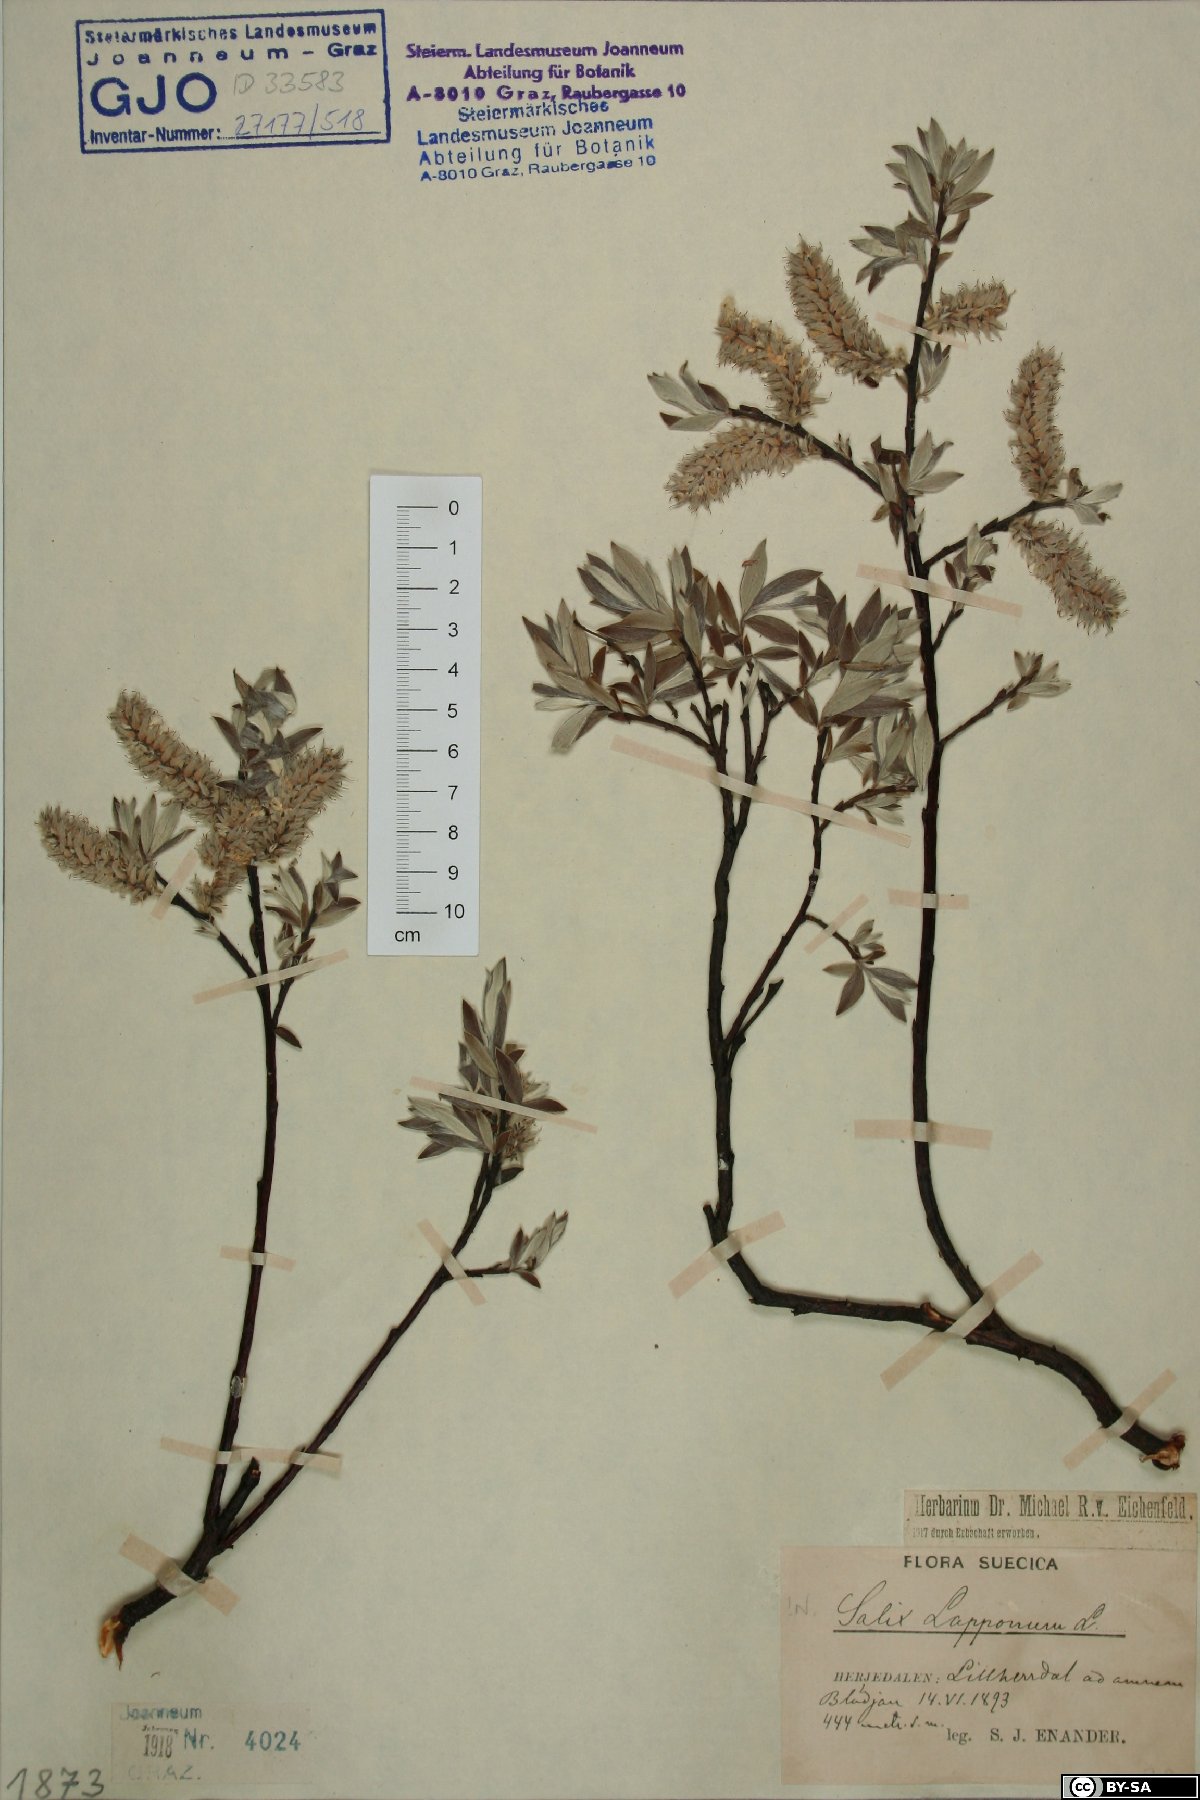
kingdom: Plantae
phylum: Tracheophyta
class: Magnoliopsida
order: Malpighiales
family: Salicaceae
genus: Salix
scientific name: Salix lapponum
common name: Downy willow
